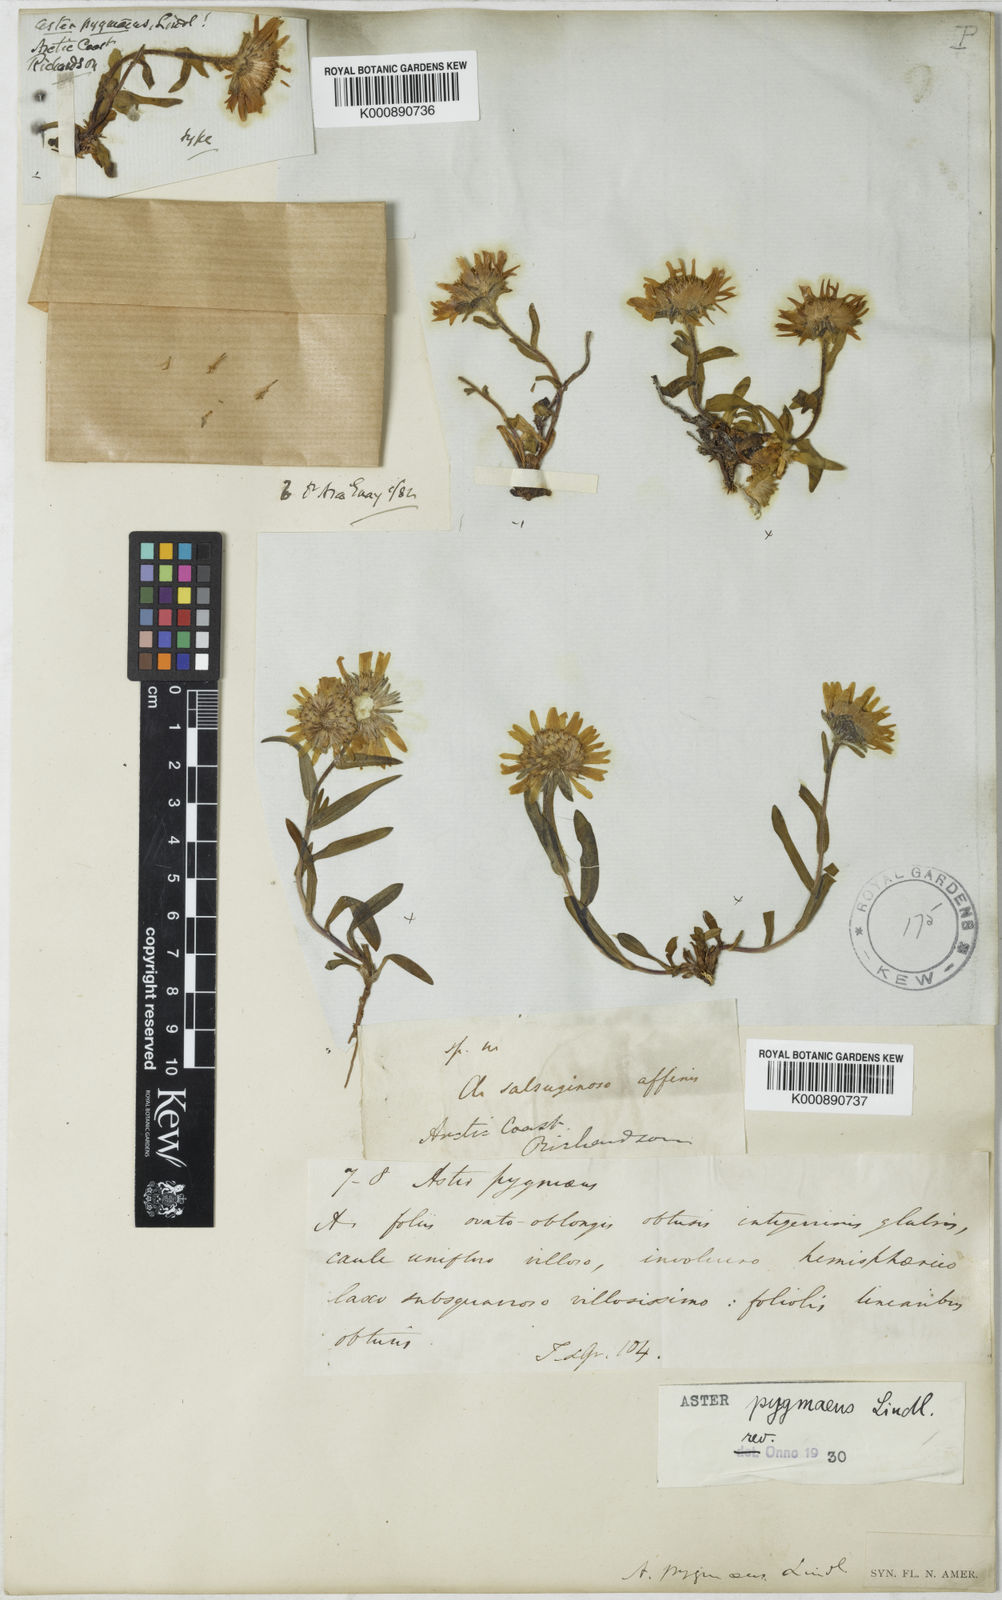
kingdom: Plantae
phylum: Tracheophyta
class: Magnoliopsida
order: Asterales
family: Asteraceae
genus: Symphyotrichum
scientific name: Symphyotrichum pygmaeum
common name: Pygmy aster
